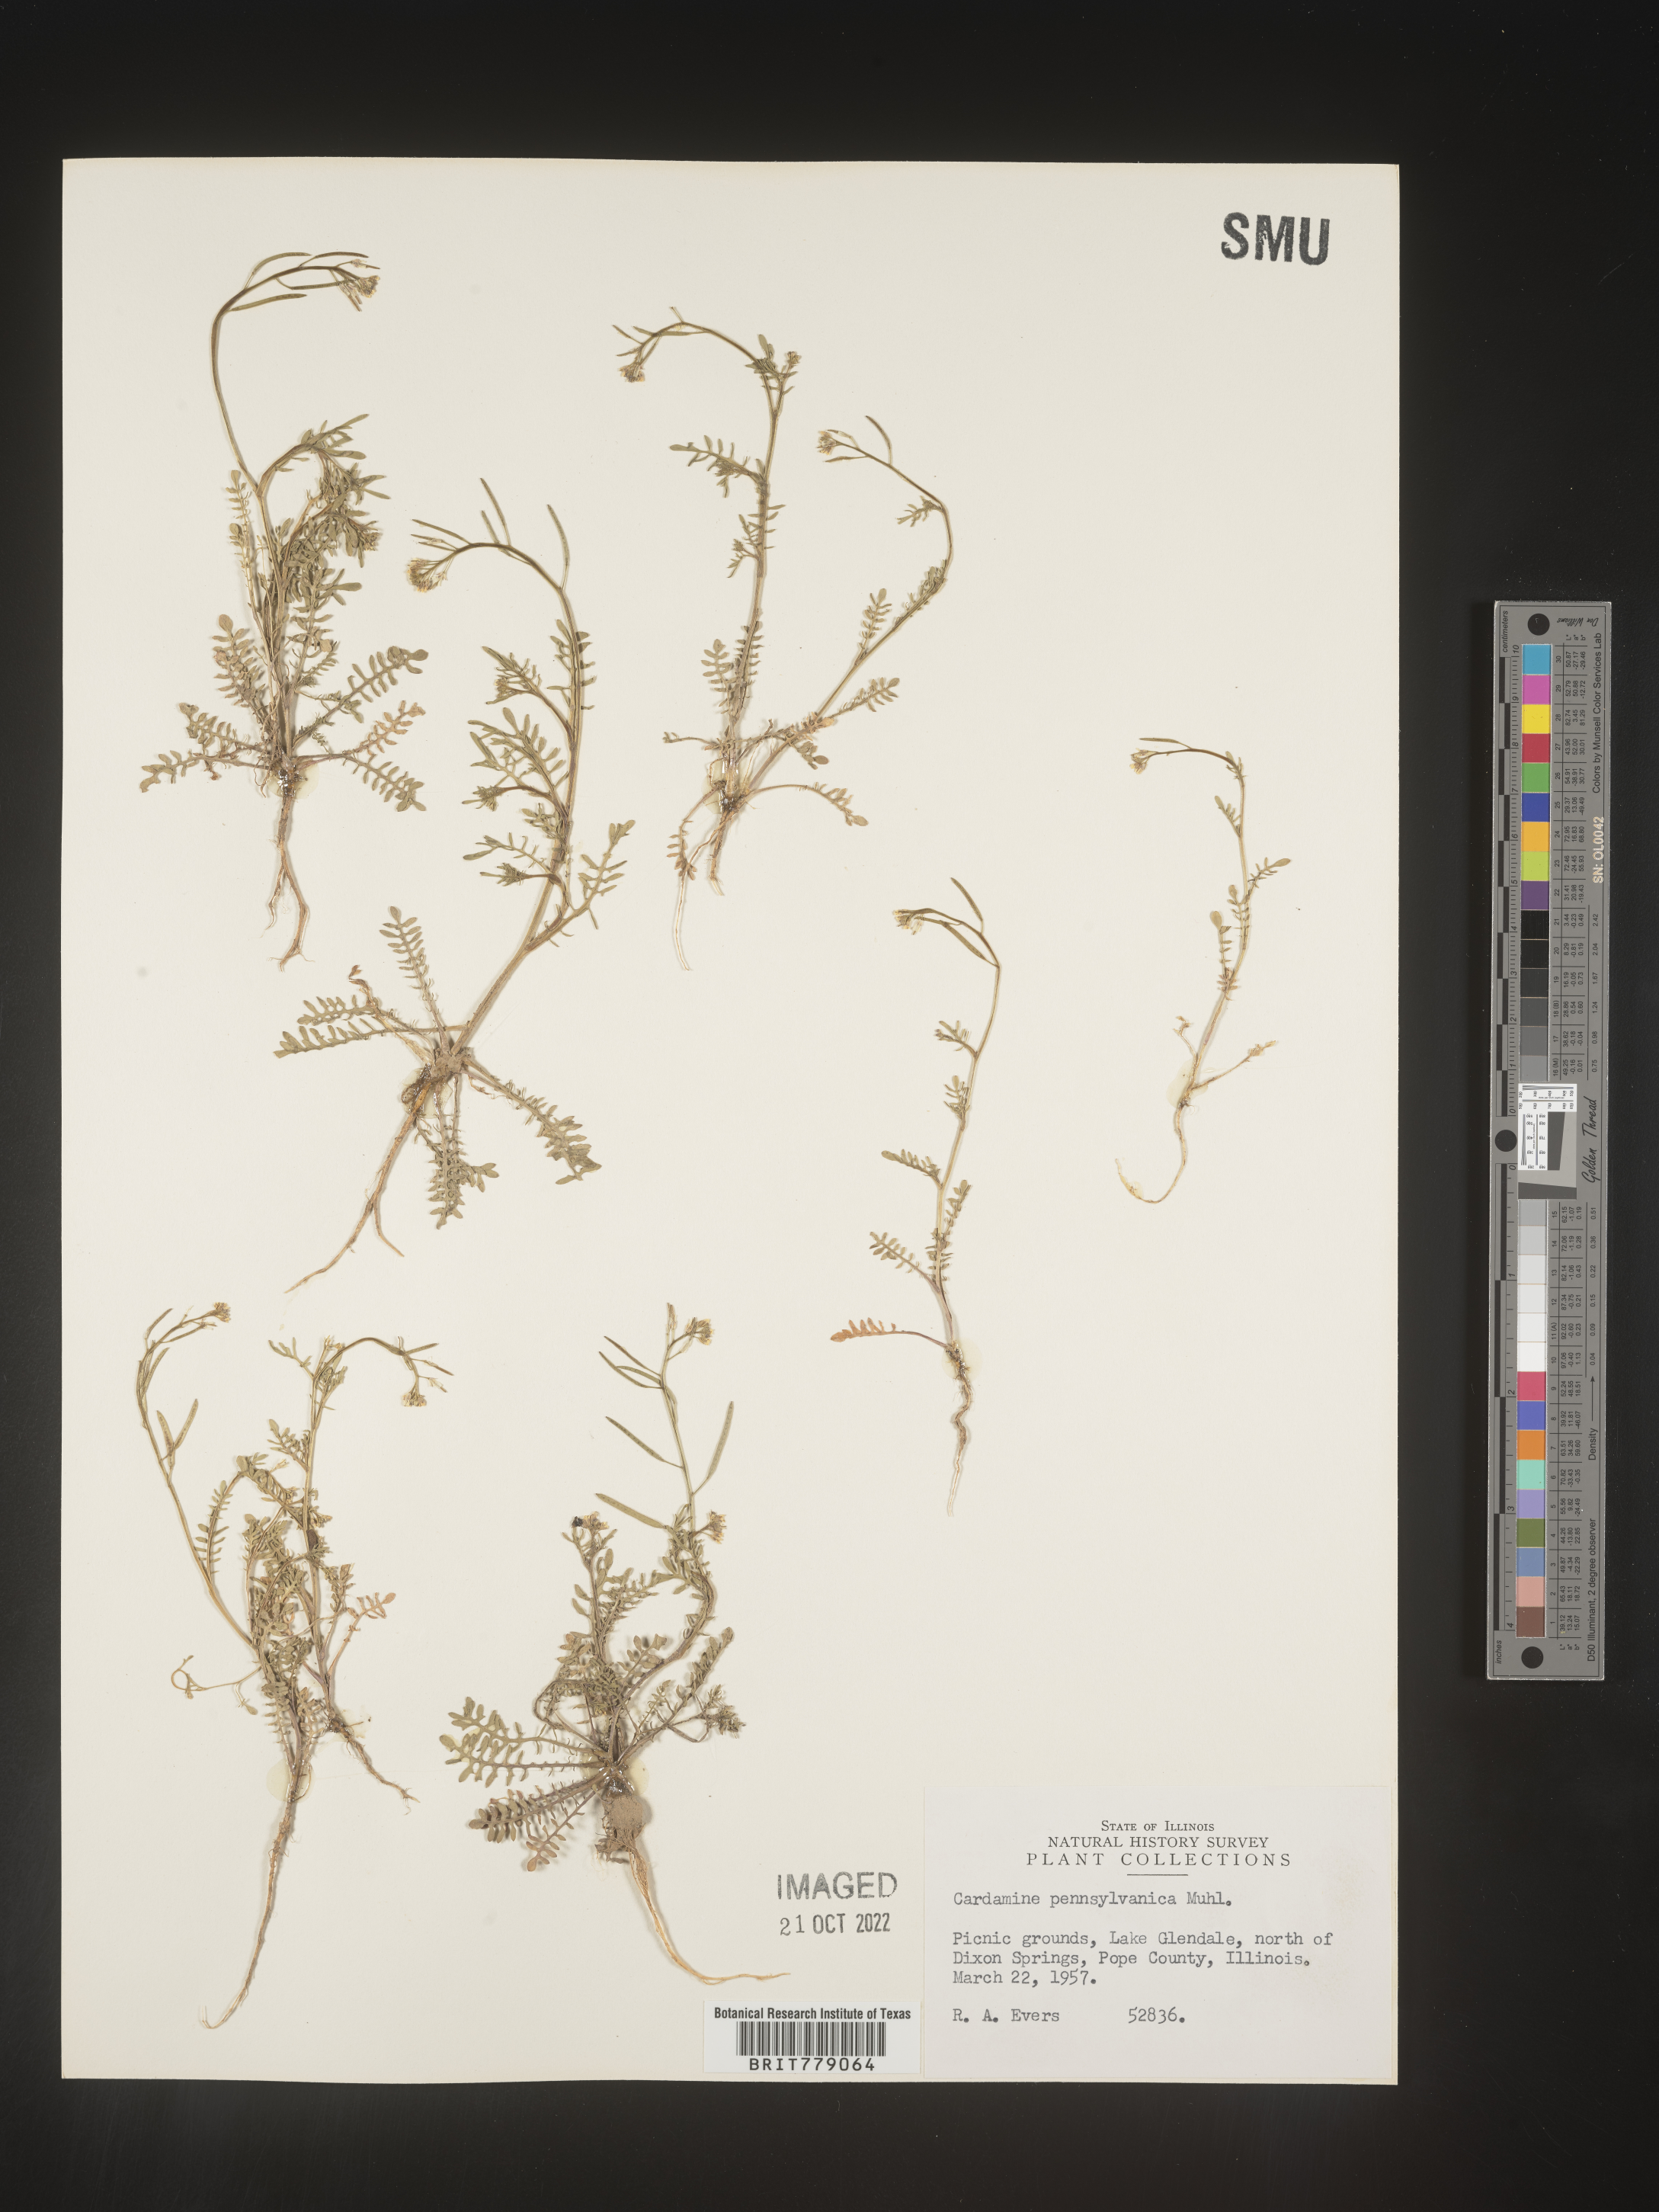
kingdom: Plantae
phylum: Tracheophyta
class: Magnoliopsida
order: Brassicales
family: Brassicaceae
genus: Sibara
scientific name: Sibara
